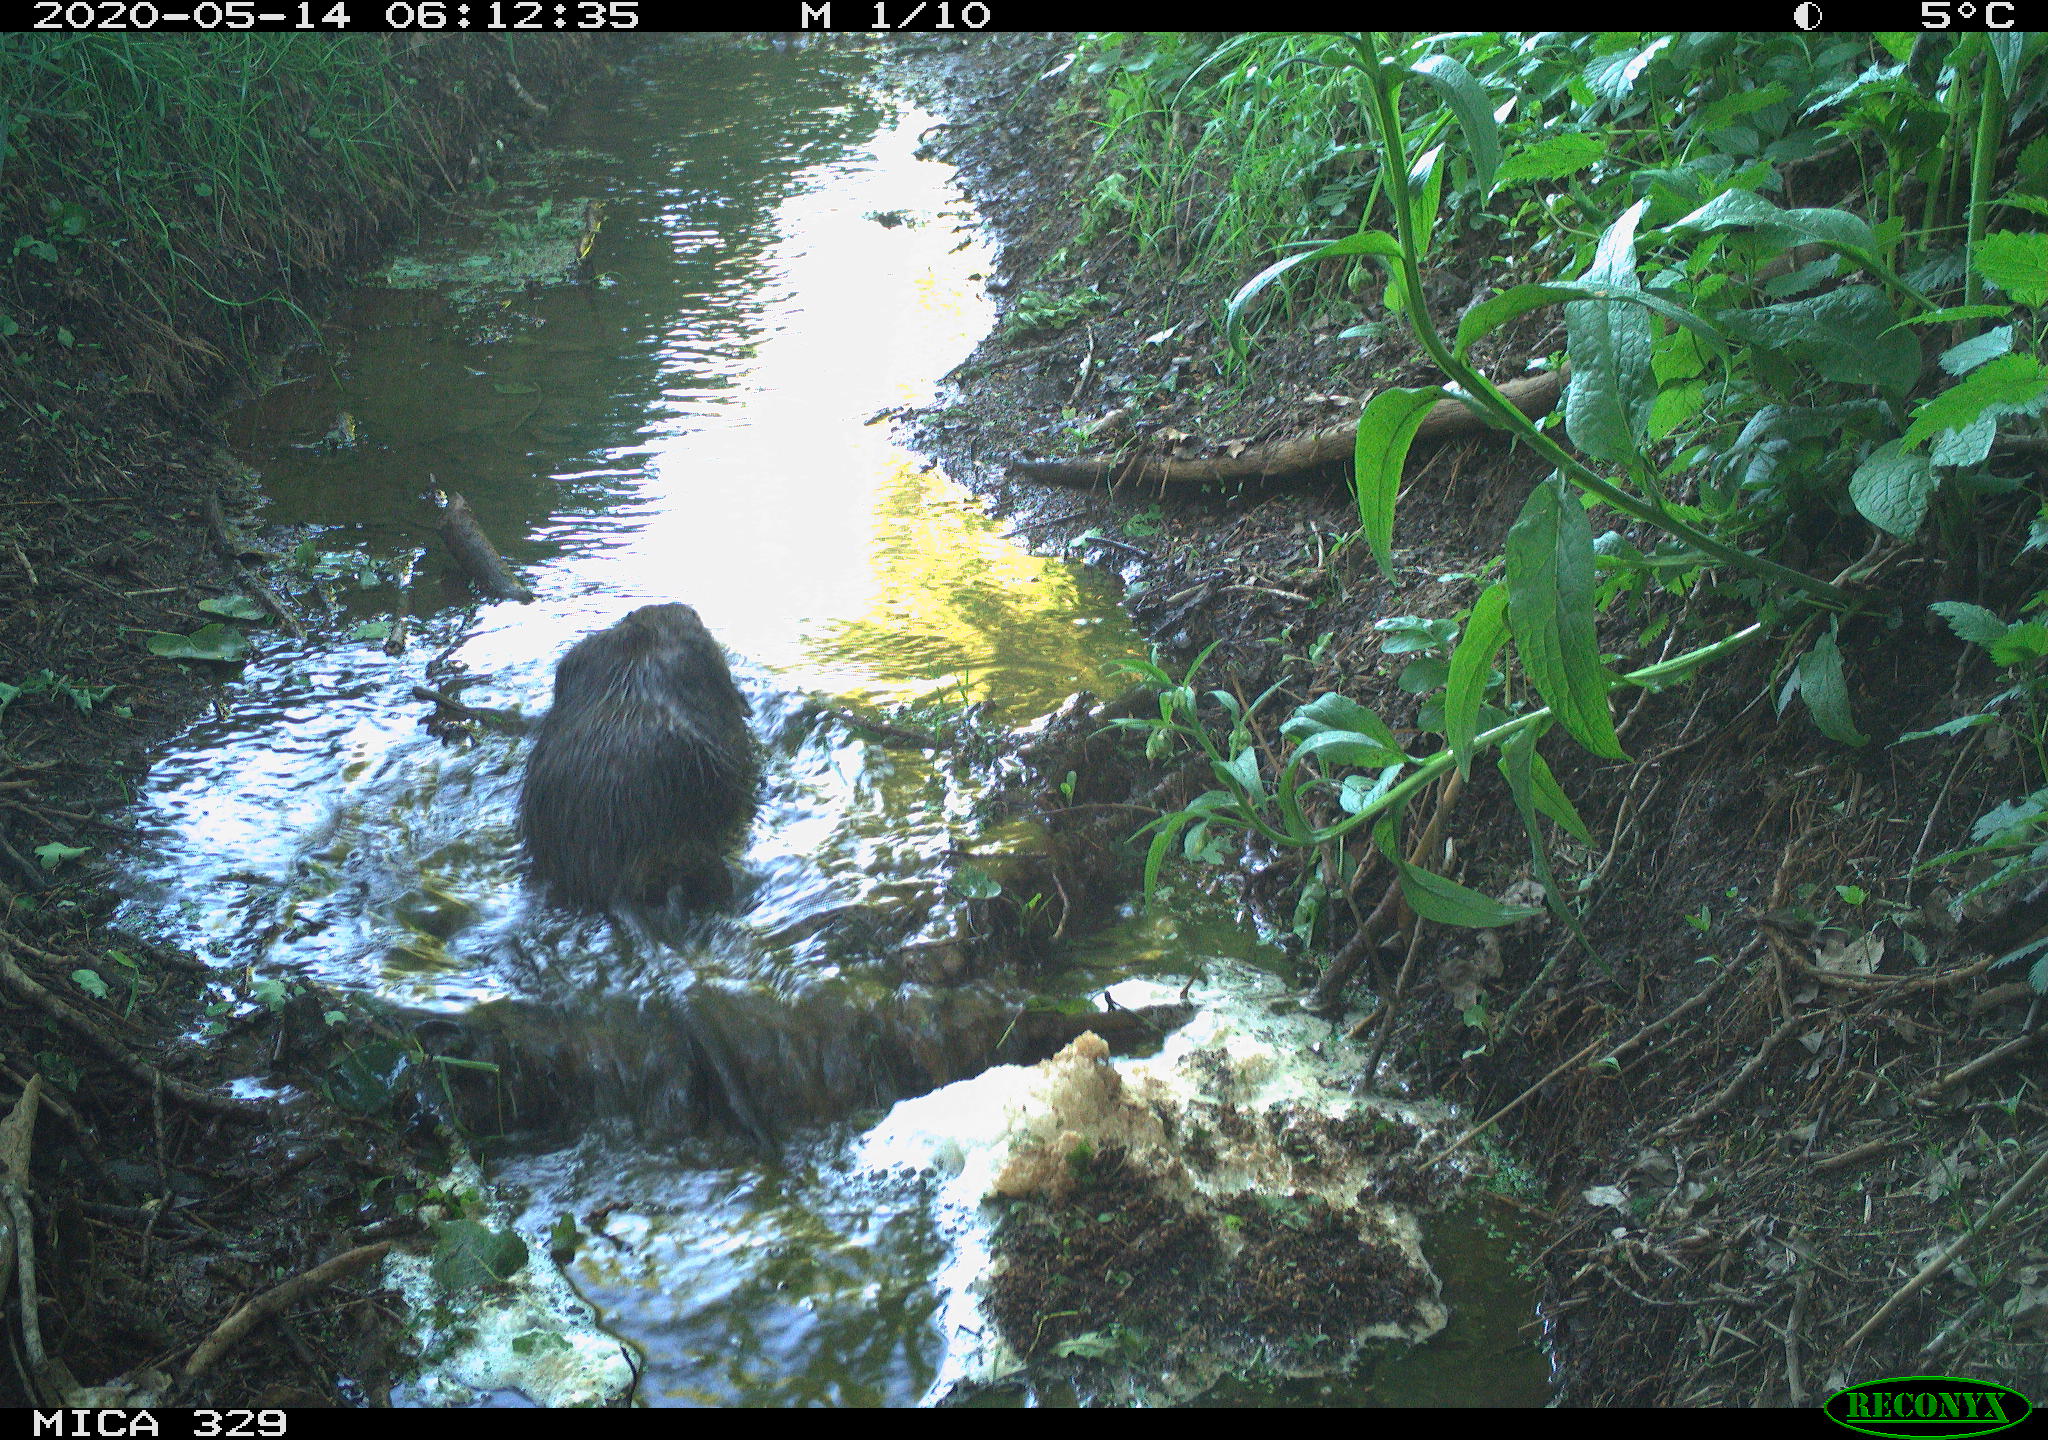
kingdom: Animalia
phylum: Chordata
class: Mammalia
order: Rodentia
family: Myocastoridae
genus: Myocastor
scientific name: Myocastor coypus
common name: Coypu
